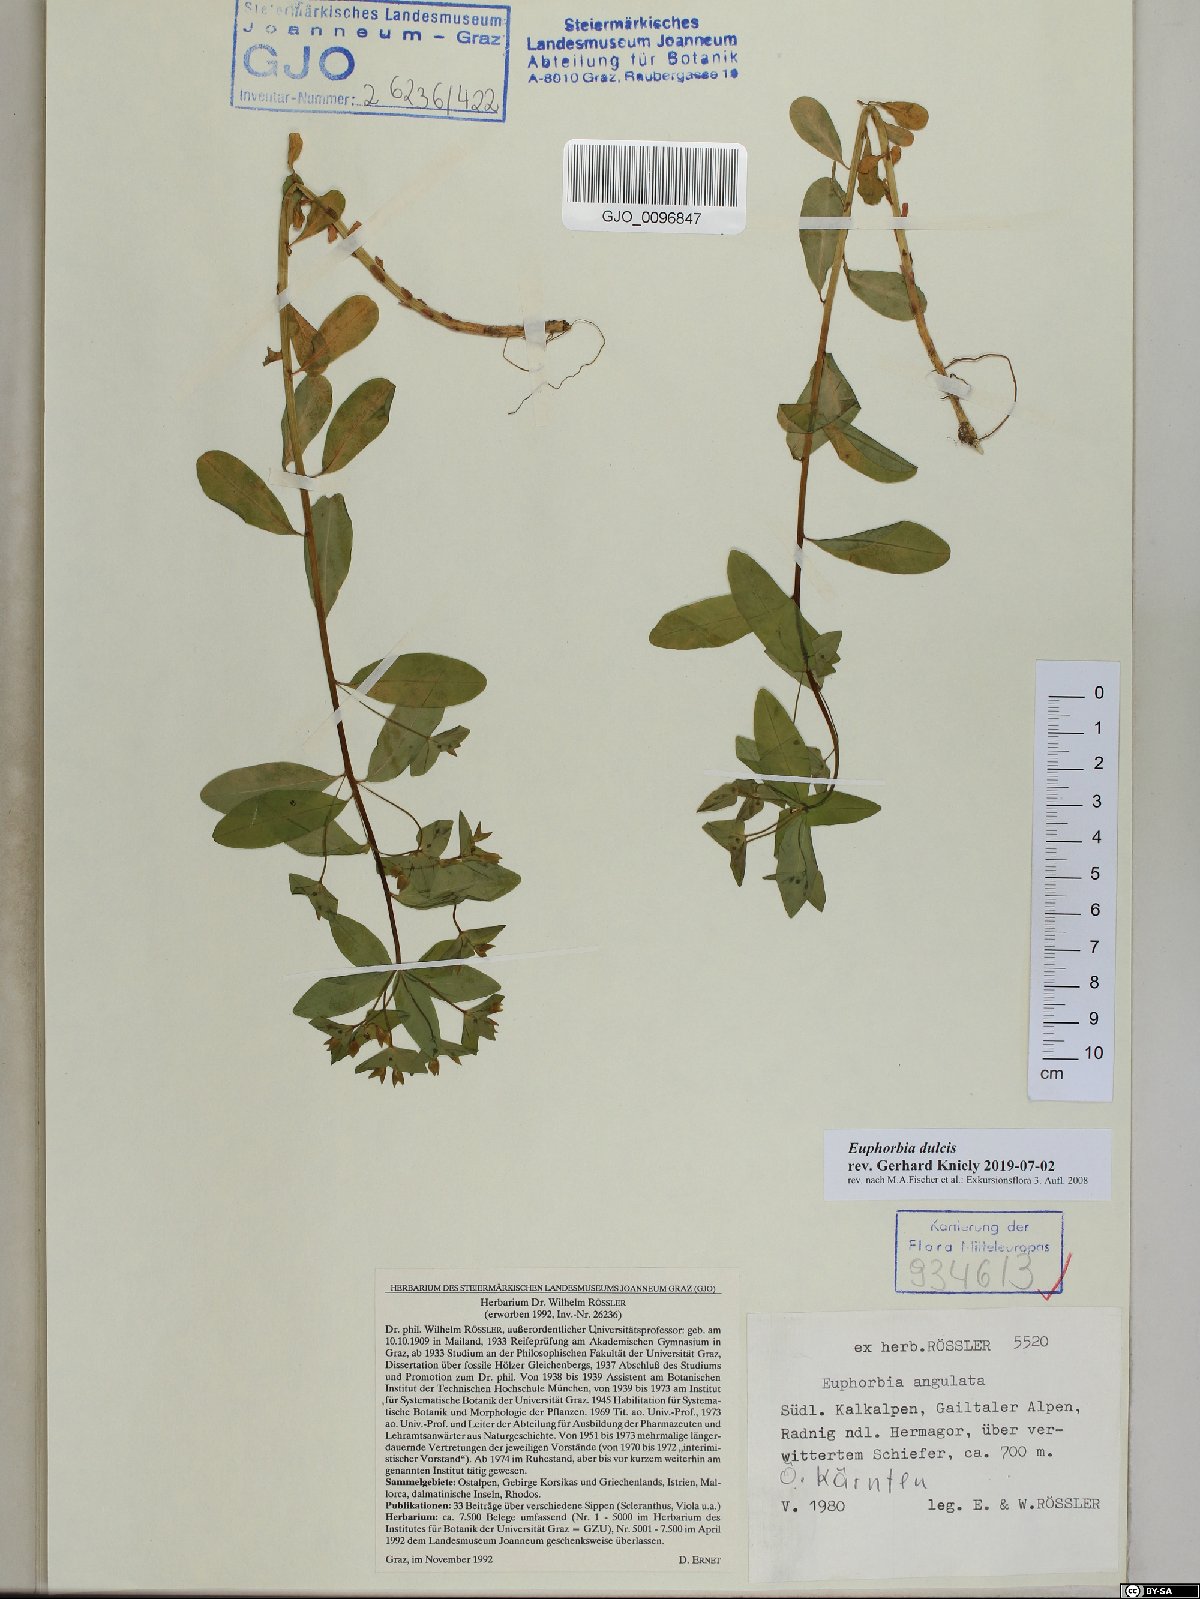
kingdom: Plantae
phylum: Tracheophyta
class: Magnoliopsida
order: Malpighiales
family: Euphorbiaceae
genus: Euphorbia
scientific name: Euphorbia dulcis
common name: Sweet spurge
